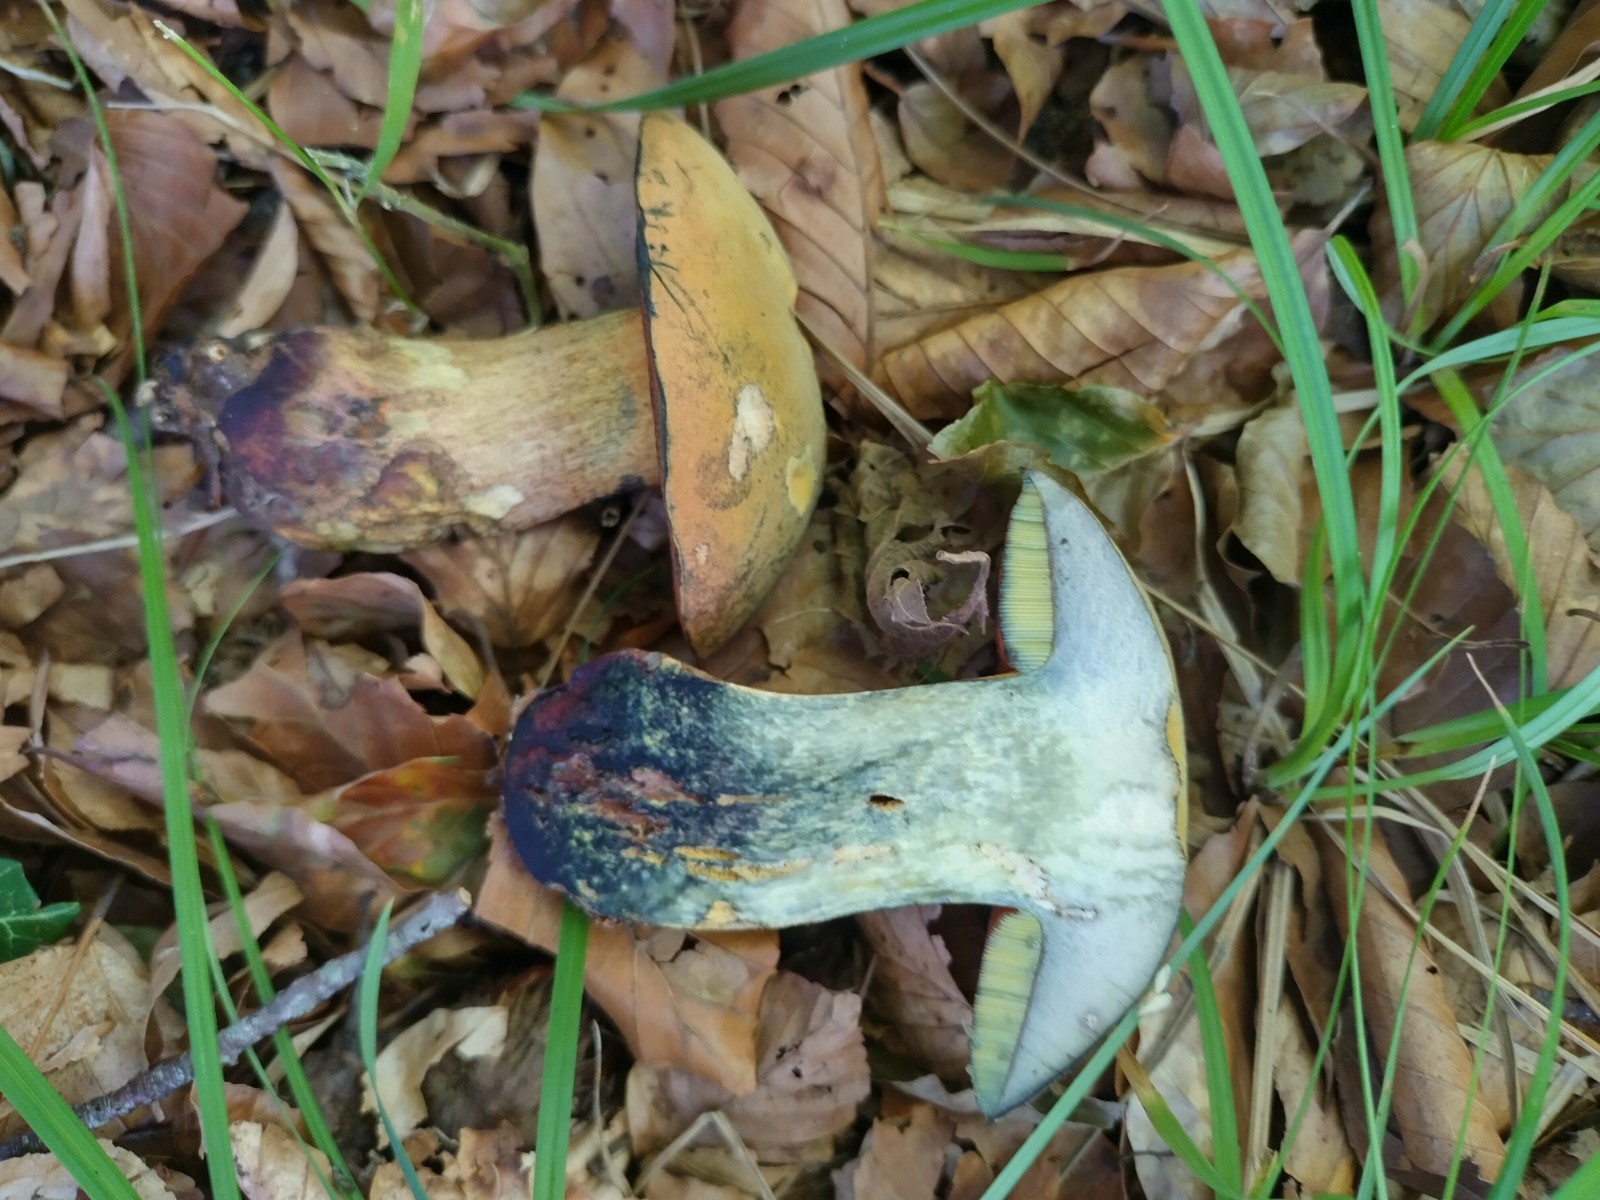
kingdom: Fungi
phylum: Basidiomycota
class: Agaricomycetes
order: Boletales
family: Boletaceae
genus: Suillellus
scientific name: Suillellus queletii
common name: glatstokket indigorørhat
